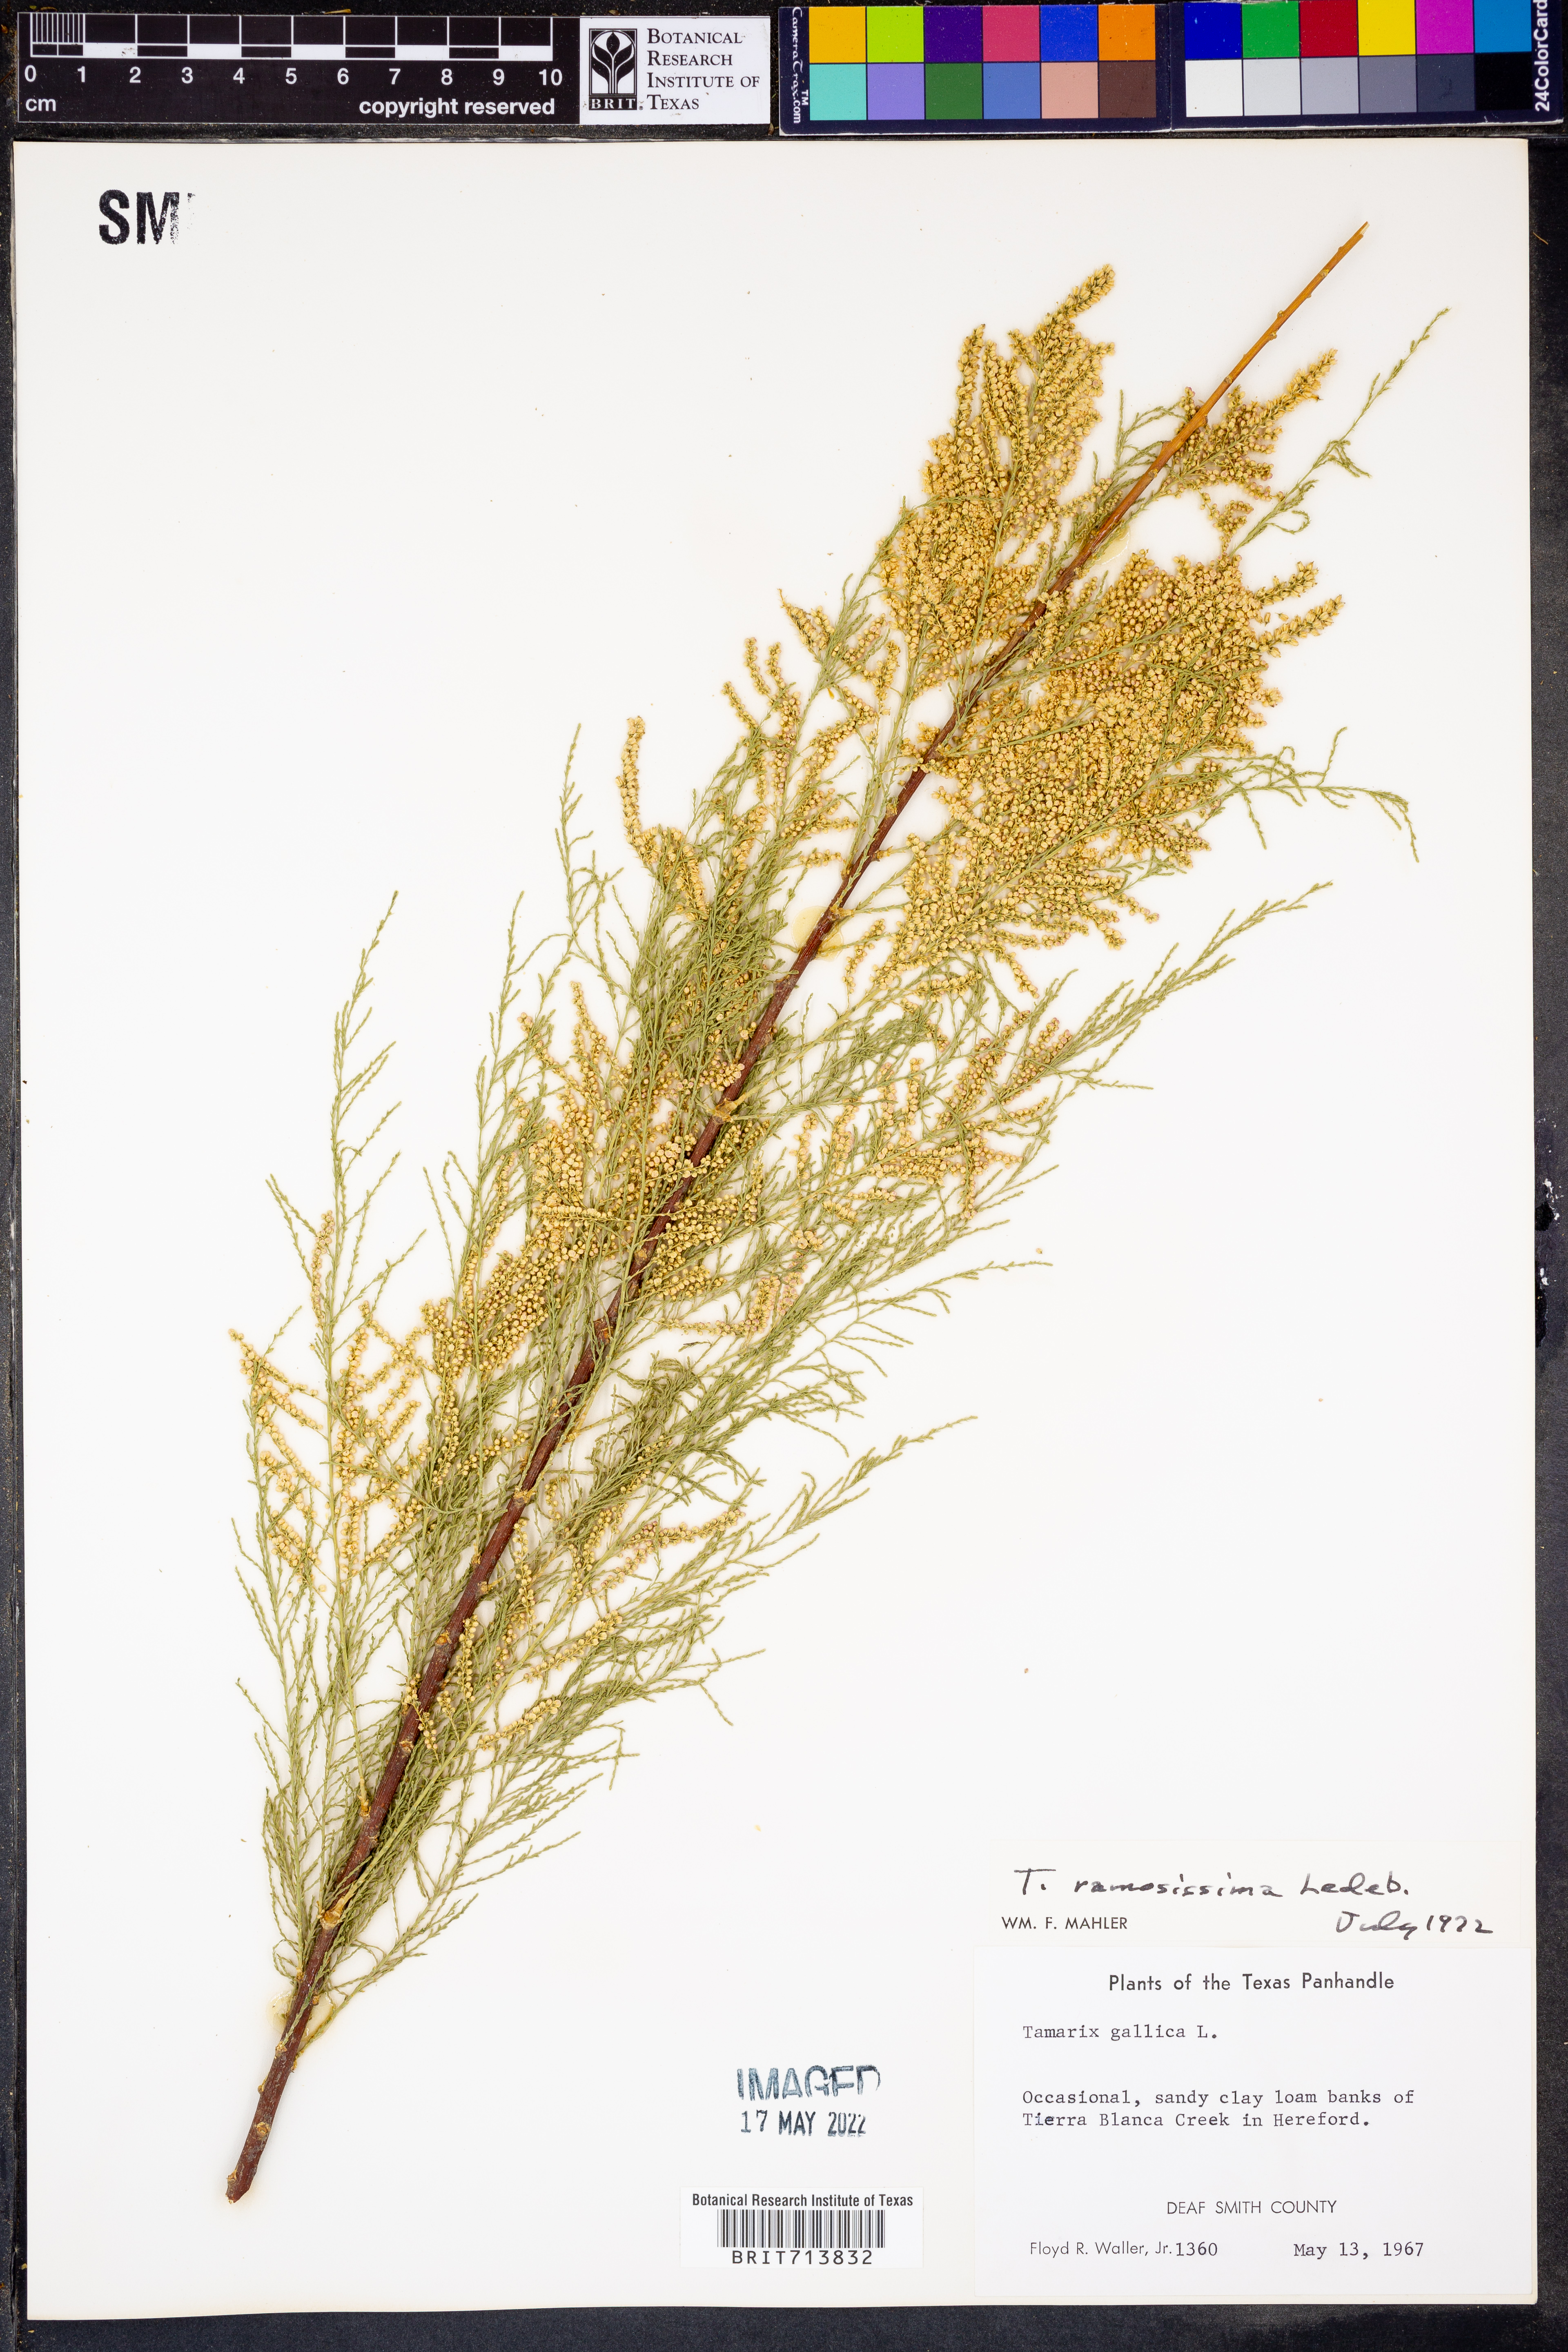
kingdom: Plantae
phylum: Tracheophyta
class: Magnoliopsida
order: Caryophyllales
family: Tamaricaceae
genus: Tamarix
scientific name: Tamarix ramosissima
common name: Pink tamarisk
